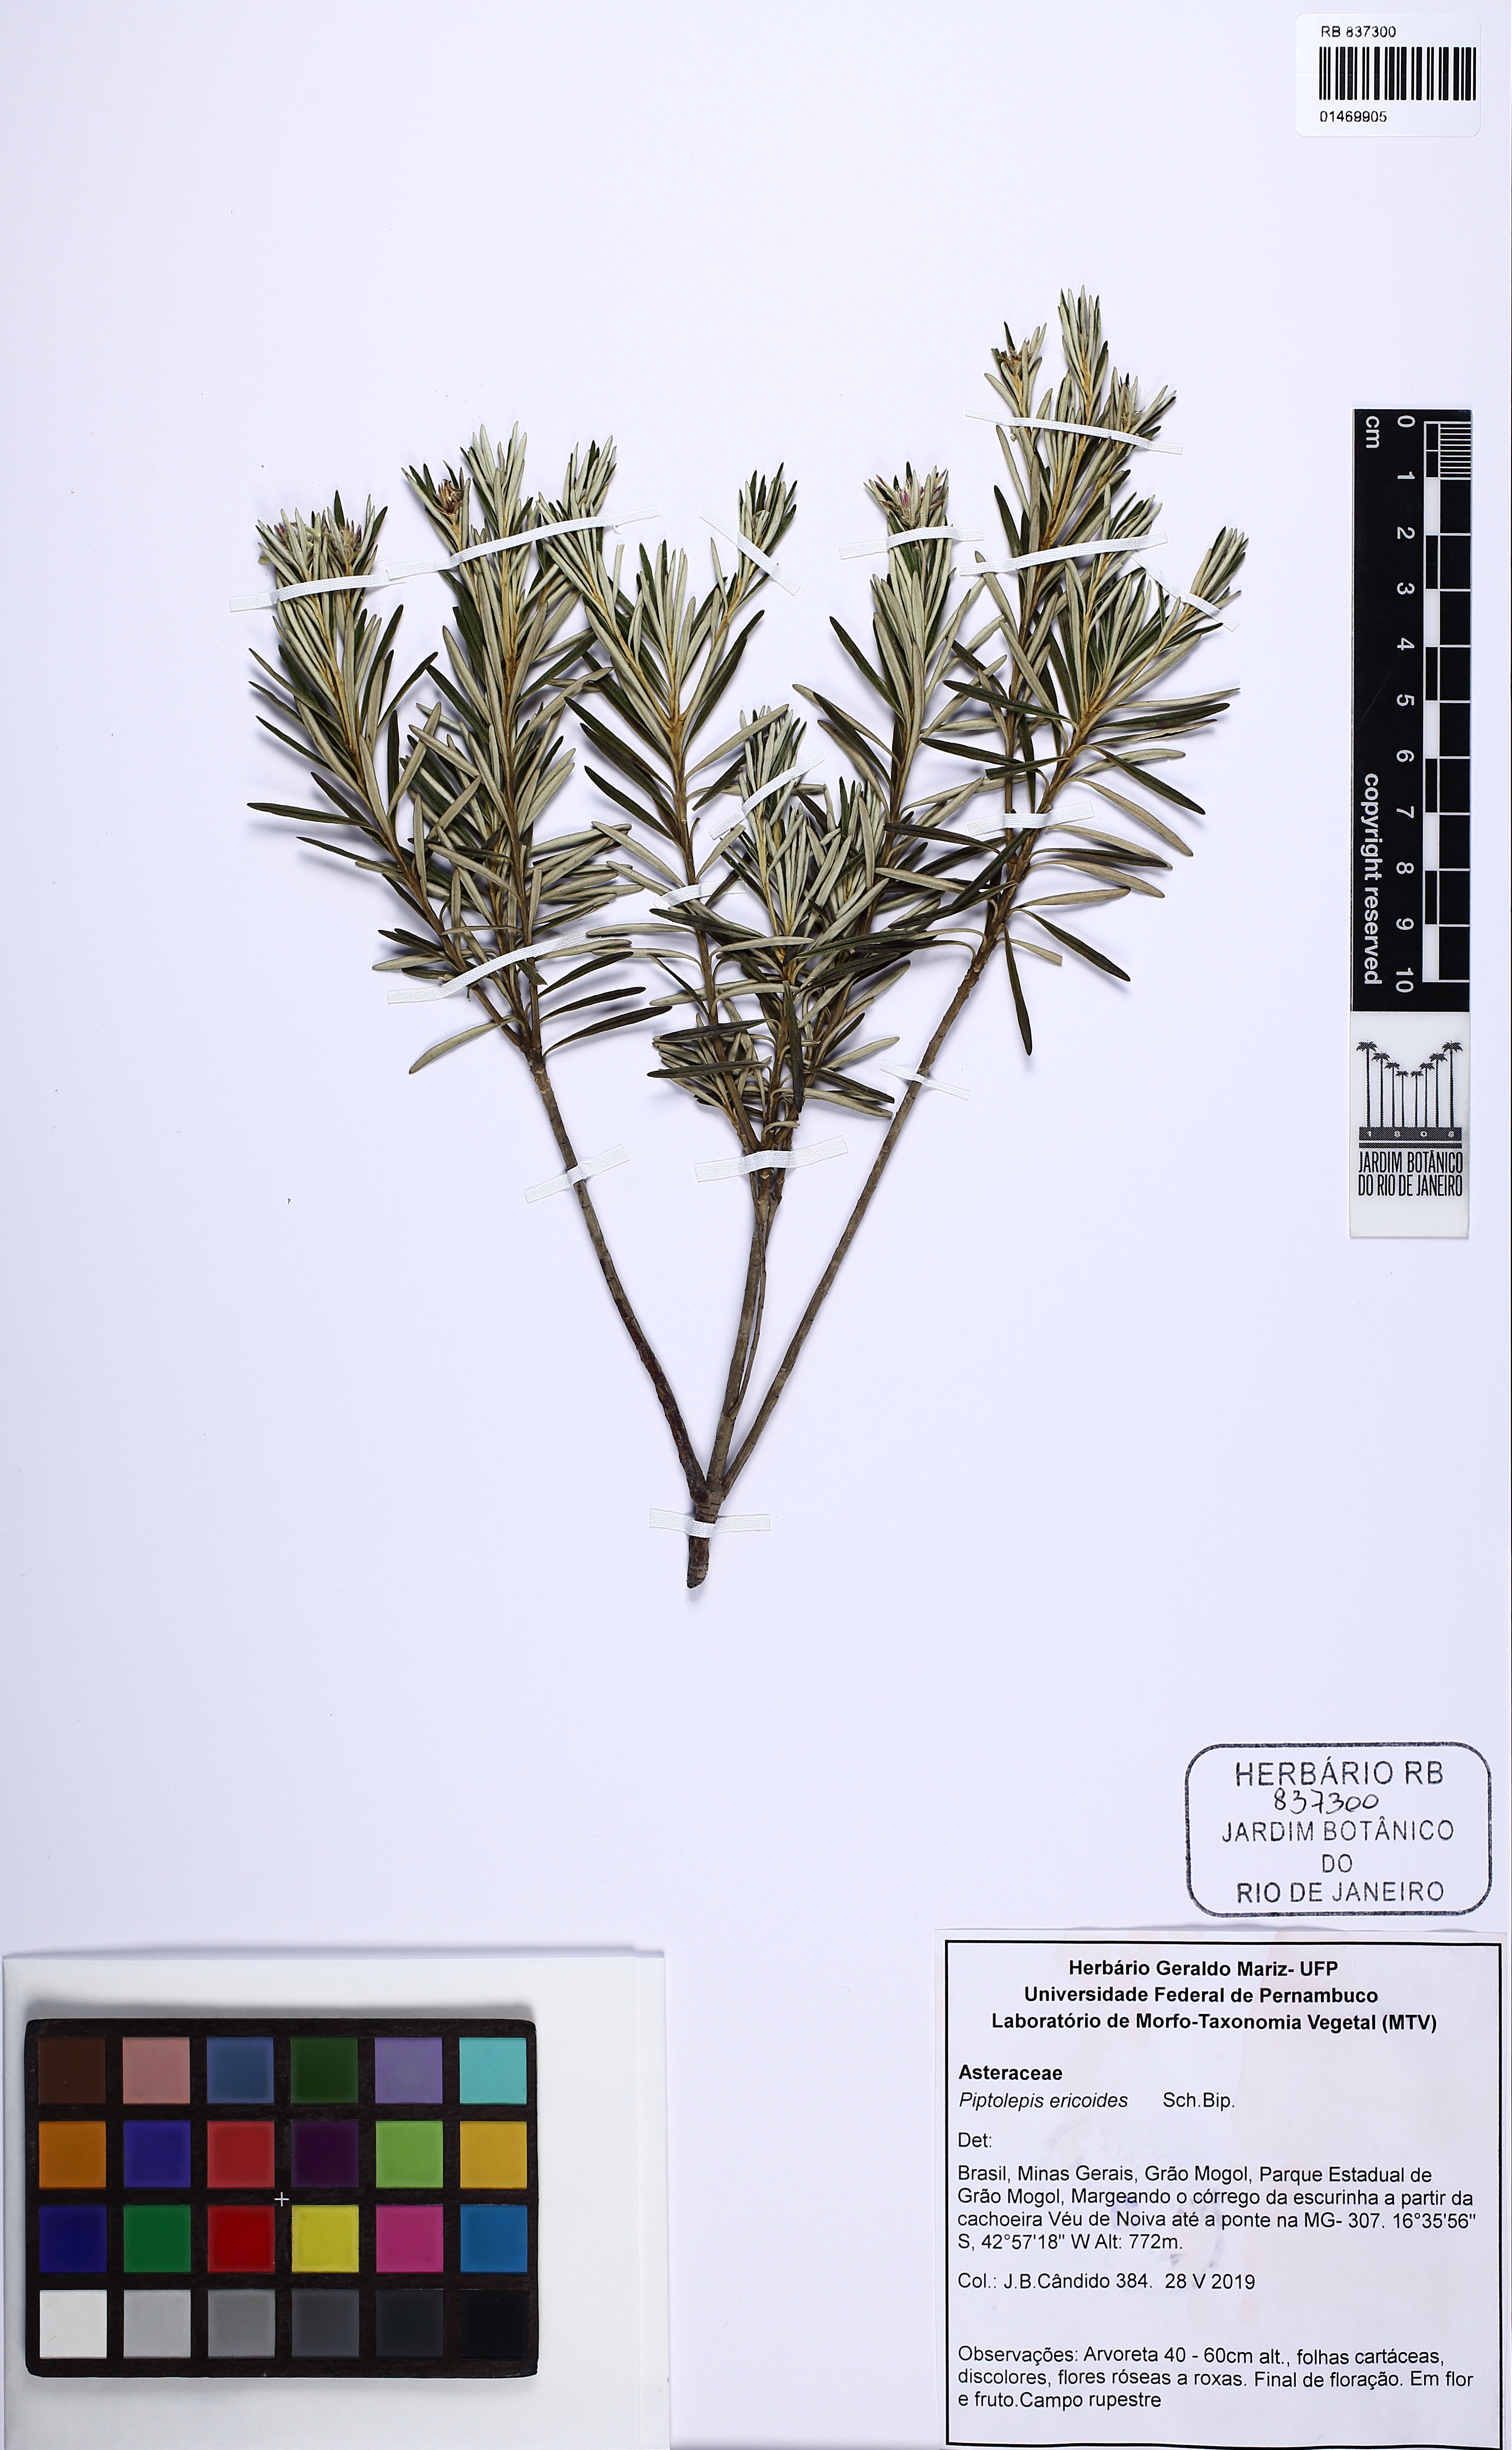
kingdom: Plantae
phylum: Tracheophyta
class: Magnoliopsida
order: Asterales
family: Asteraceae
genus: Piptolepis
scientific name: Piptolepis ericoides
